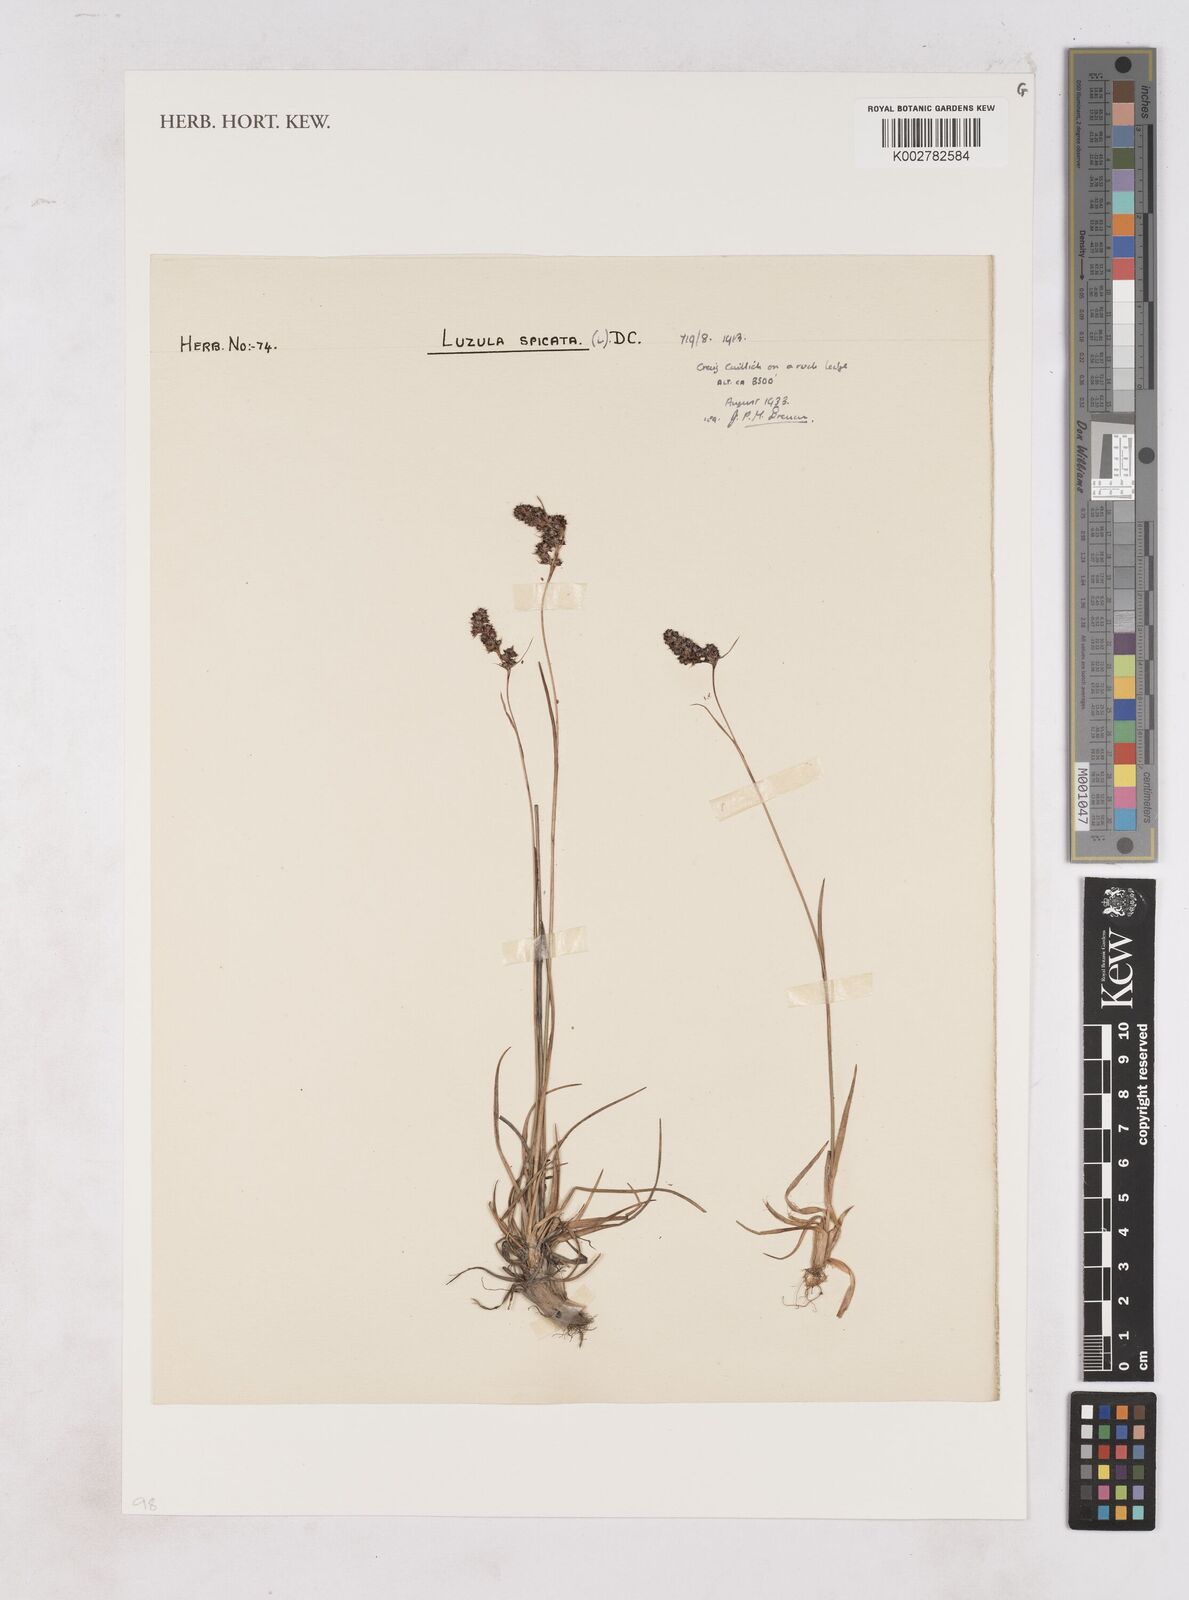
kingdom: Plantae
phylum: Tracheophyta
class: Liliopsida
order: Poales
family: Juncaceae
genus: Luzula
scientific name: Luzula spicata
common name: Spiked wood-rush
